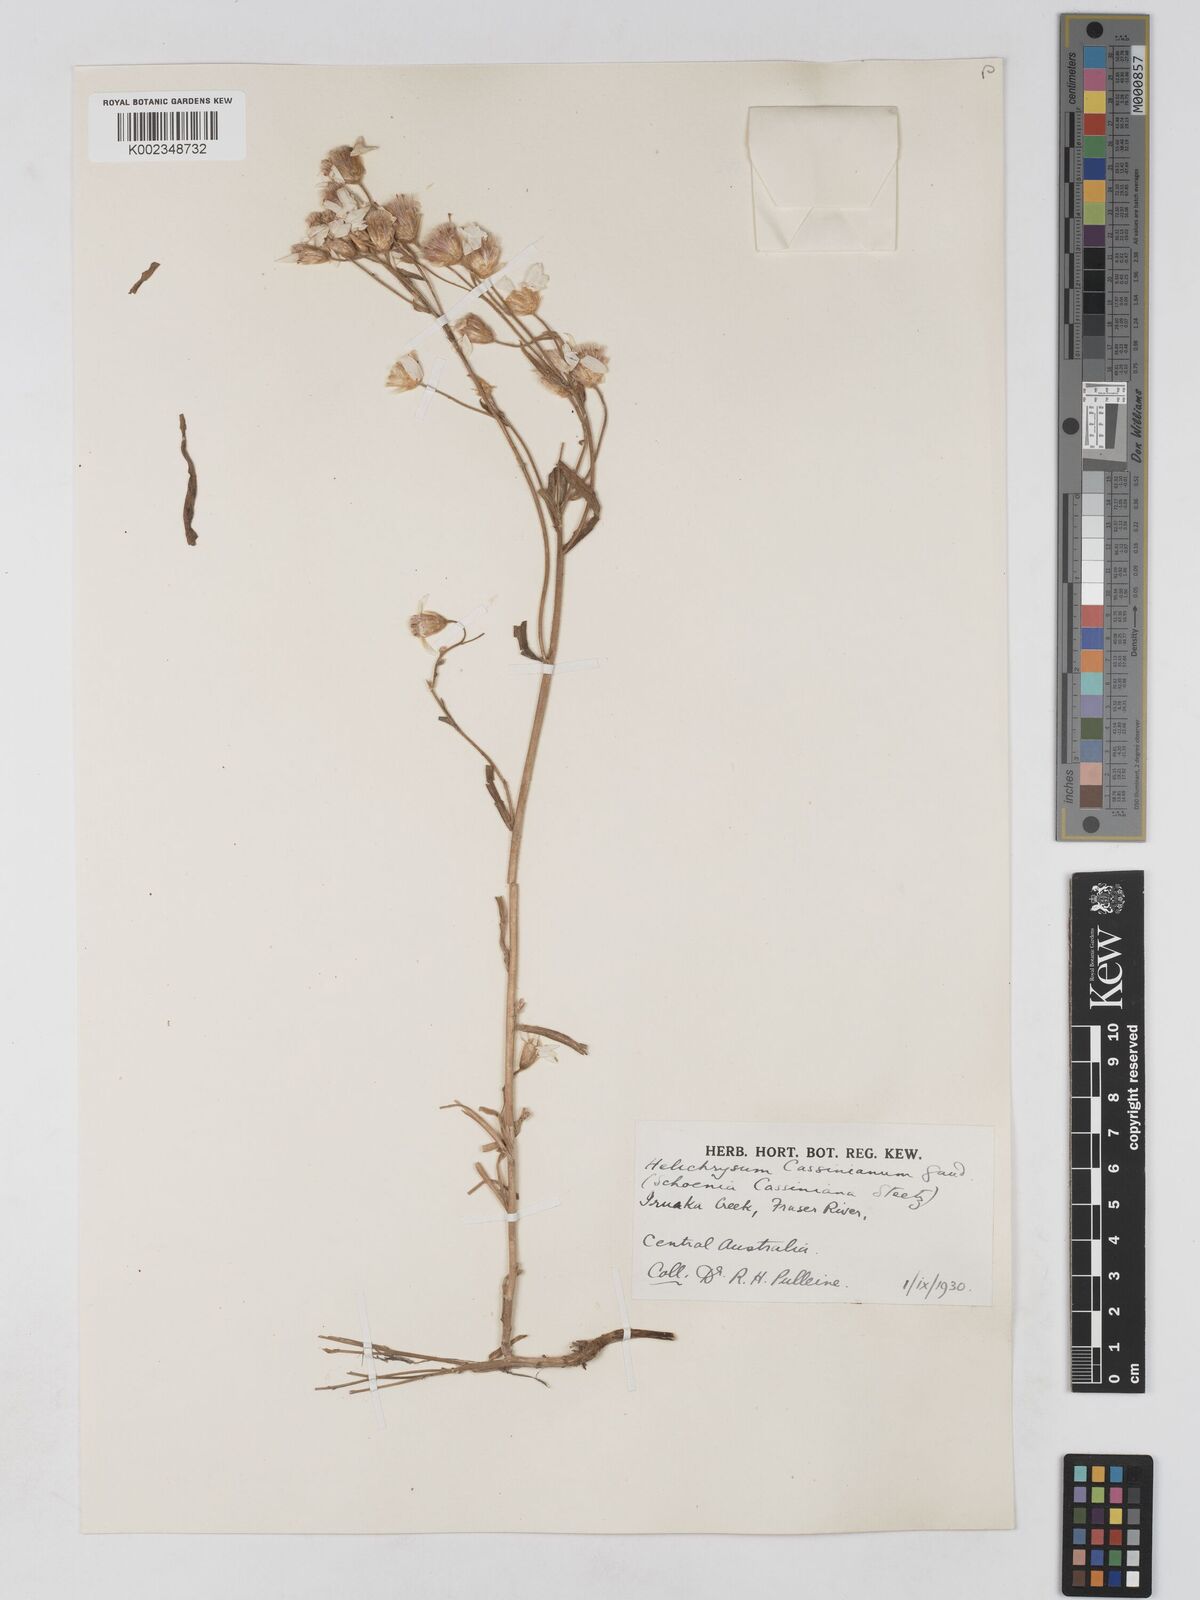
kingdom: Plantae
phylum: Tracheophyta
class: Magnoliopsida
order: Asterales
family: Asteraceae
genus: Schoenia
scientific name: Schoenia cassiniana
